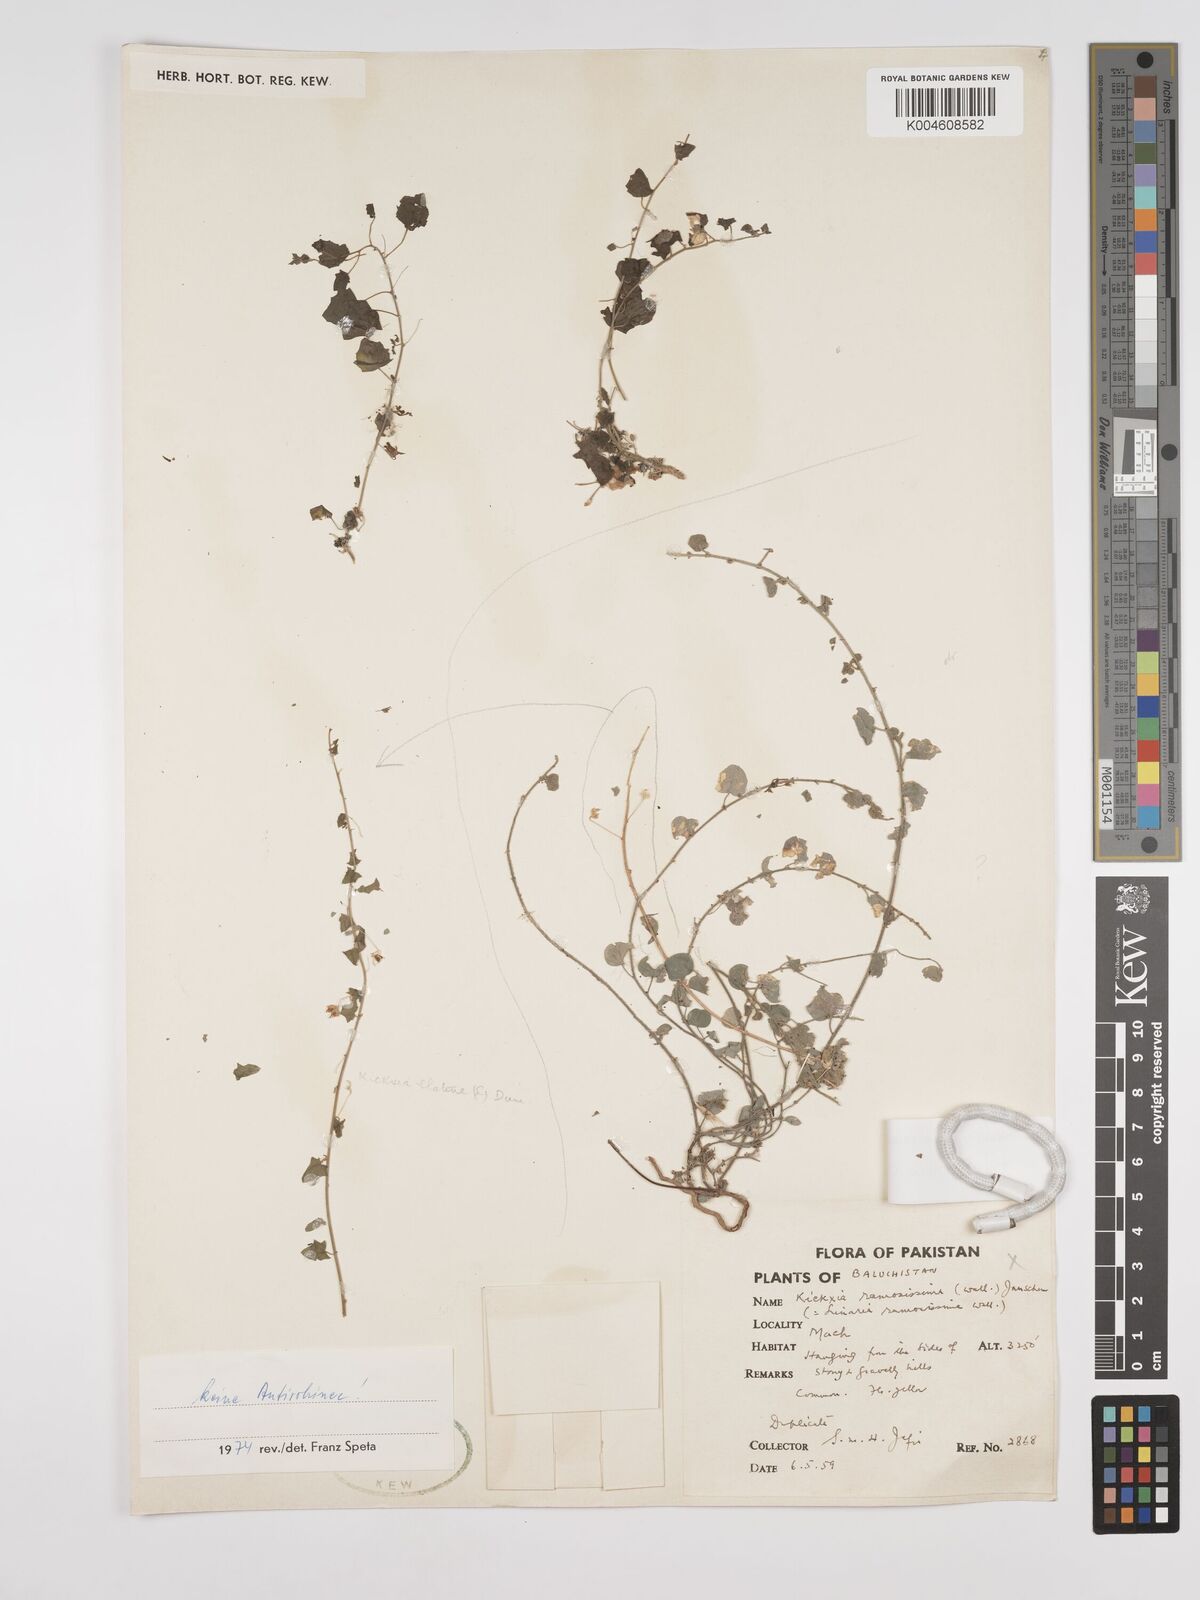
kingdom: Plantae
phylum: Tracheophyta
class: Magnoliopsida
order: Lamiales
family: Plantaginaceae
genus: Kickxia
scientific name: Kickxia
